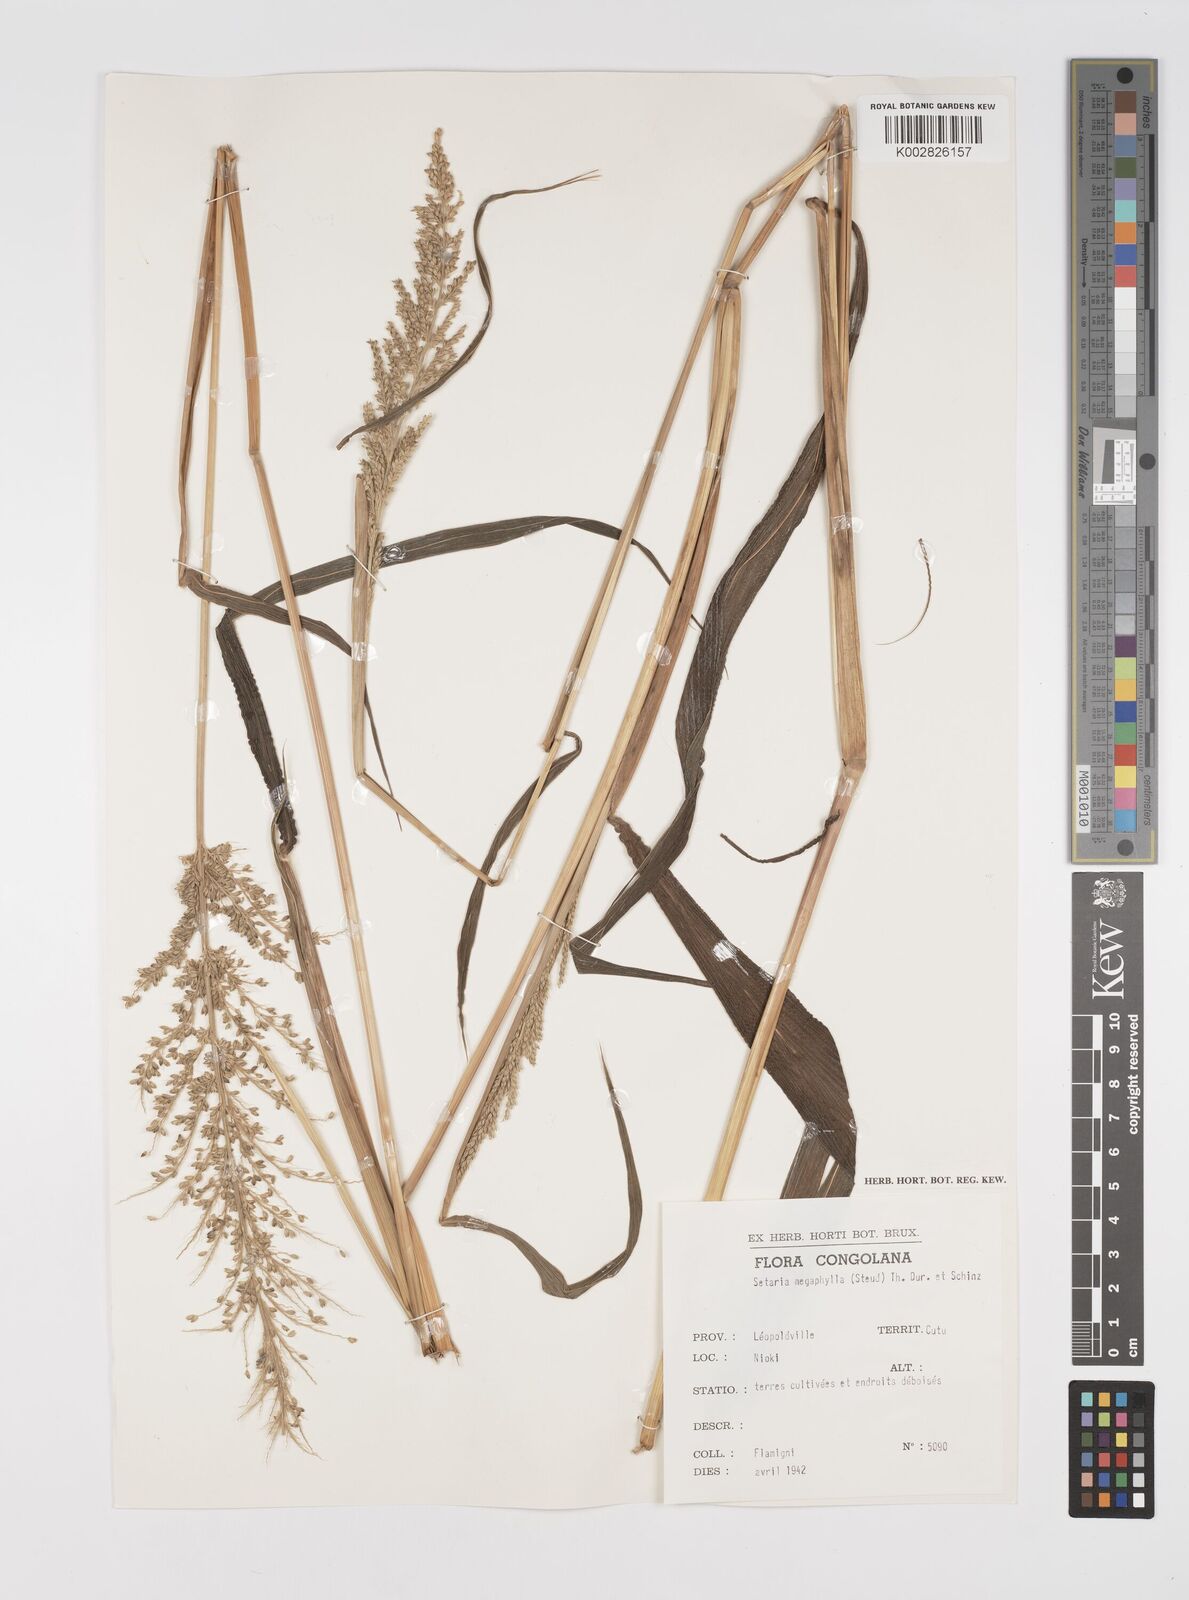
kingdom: Plantae
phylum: Tracheophyta
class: Liliopsida
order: Poales
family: Poaceae
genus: Setaria
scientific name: Setaria barbata
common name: East indian bristlegrass
